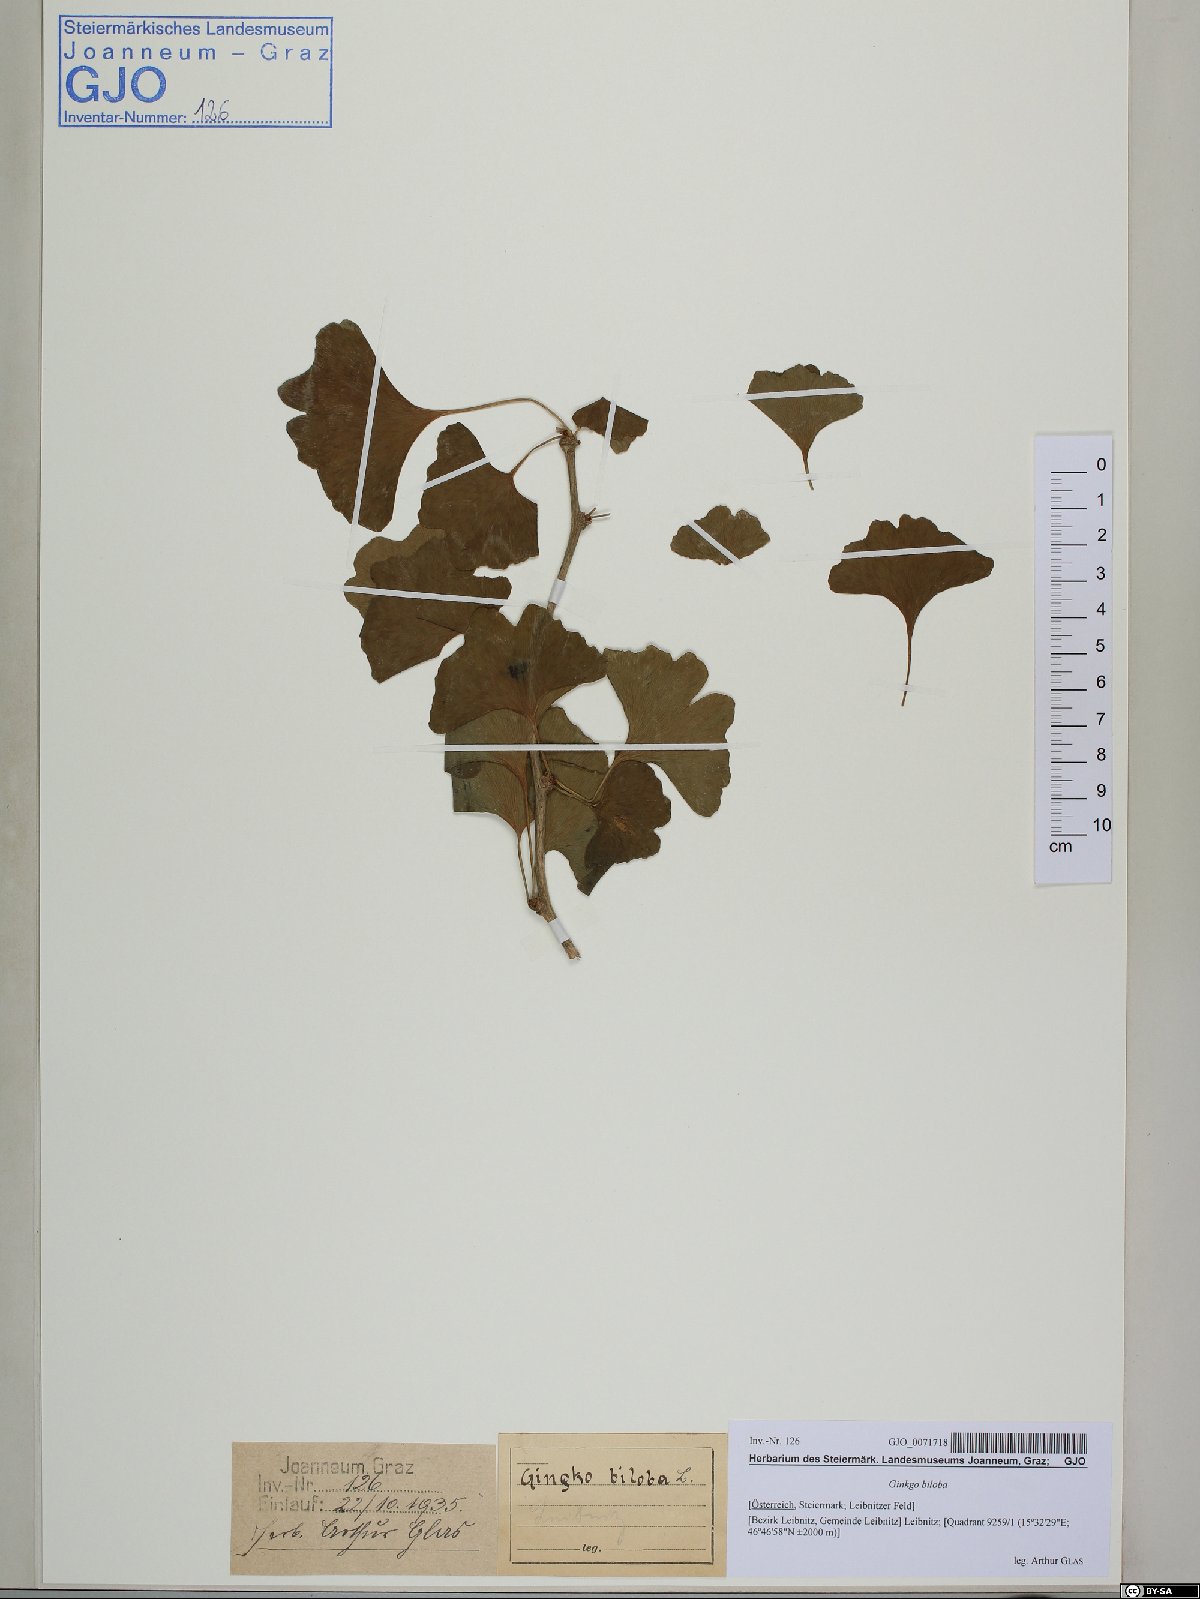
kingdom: Plantae
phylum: Tracheophyta
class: Ginkgoopsida
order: Ginkgoales
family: Ginkgoaceae
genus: Ginkgo
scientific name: Ginkgo biloba
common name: Ginkgo
